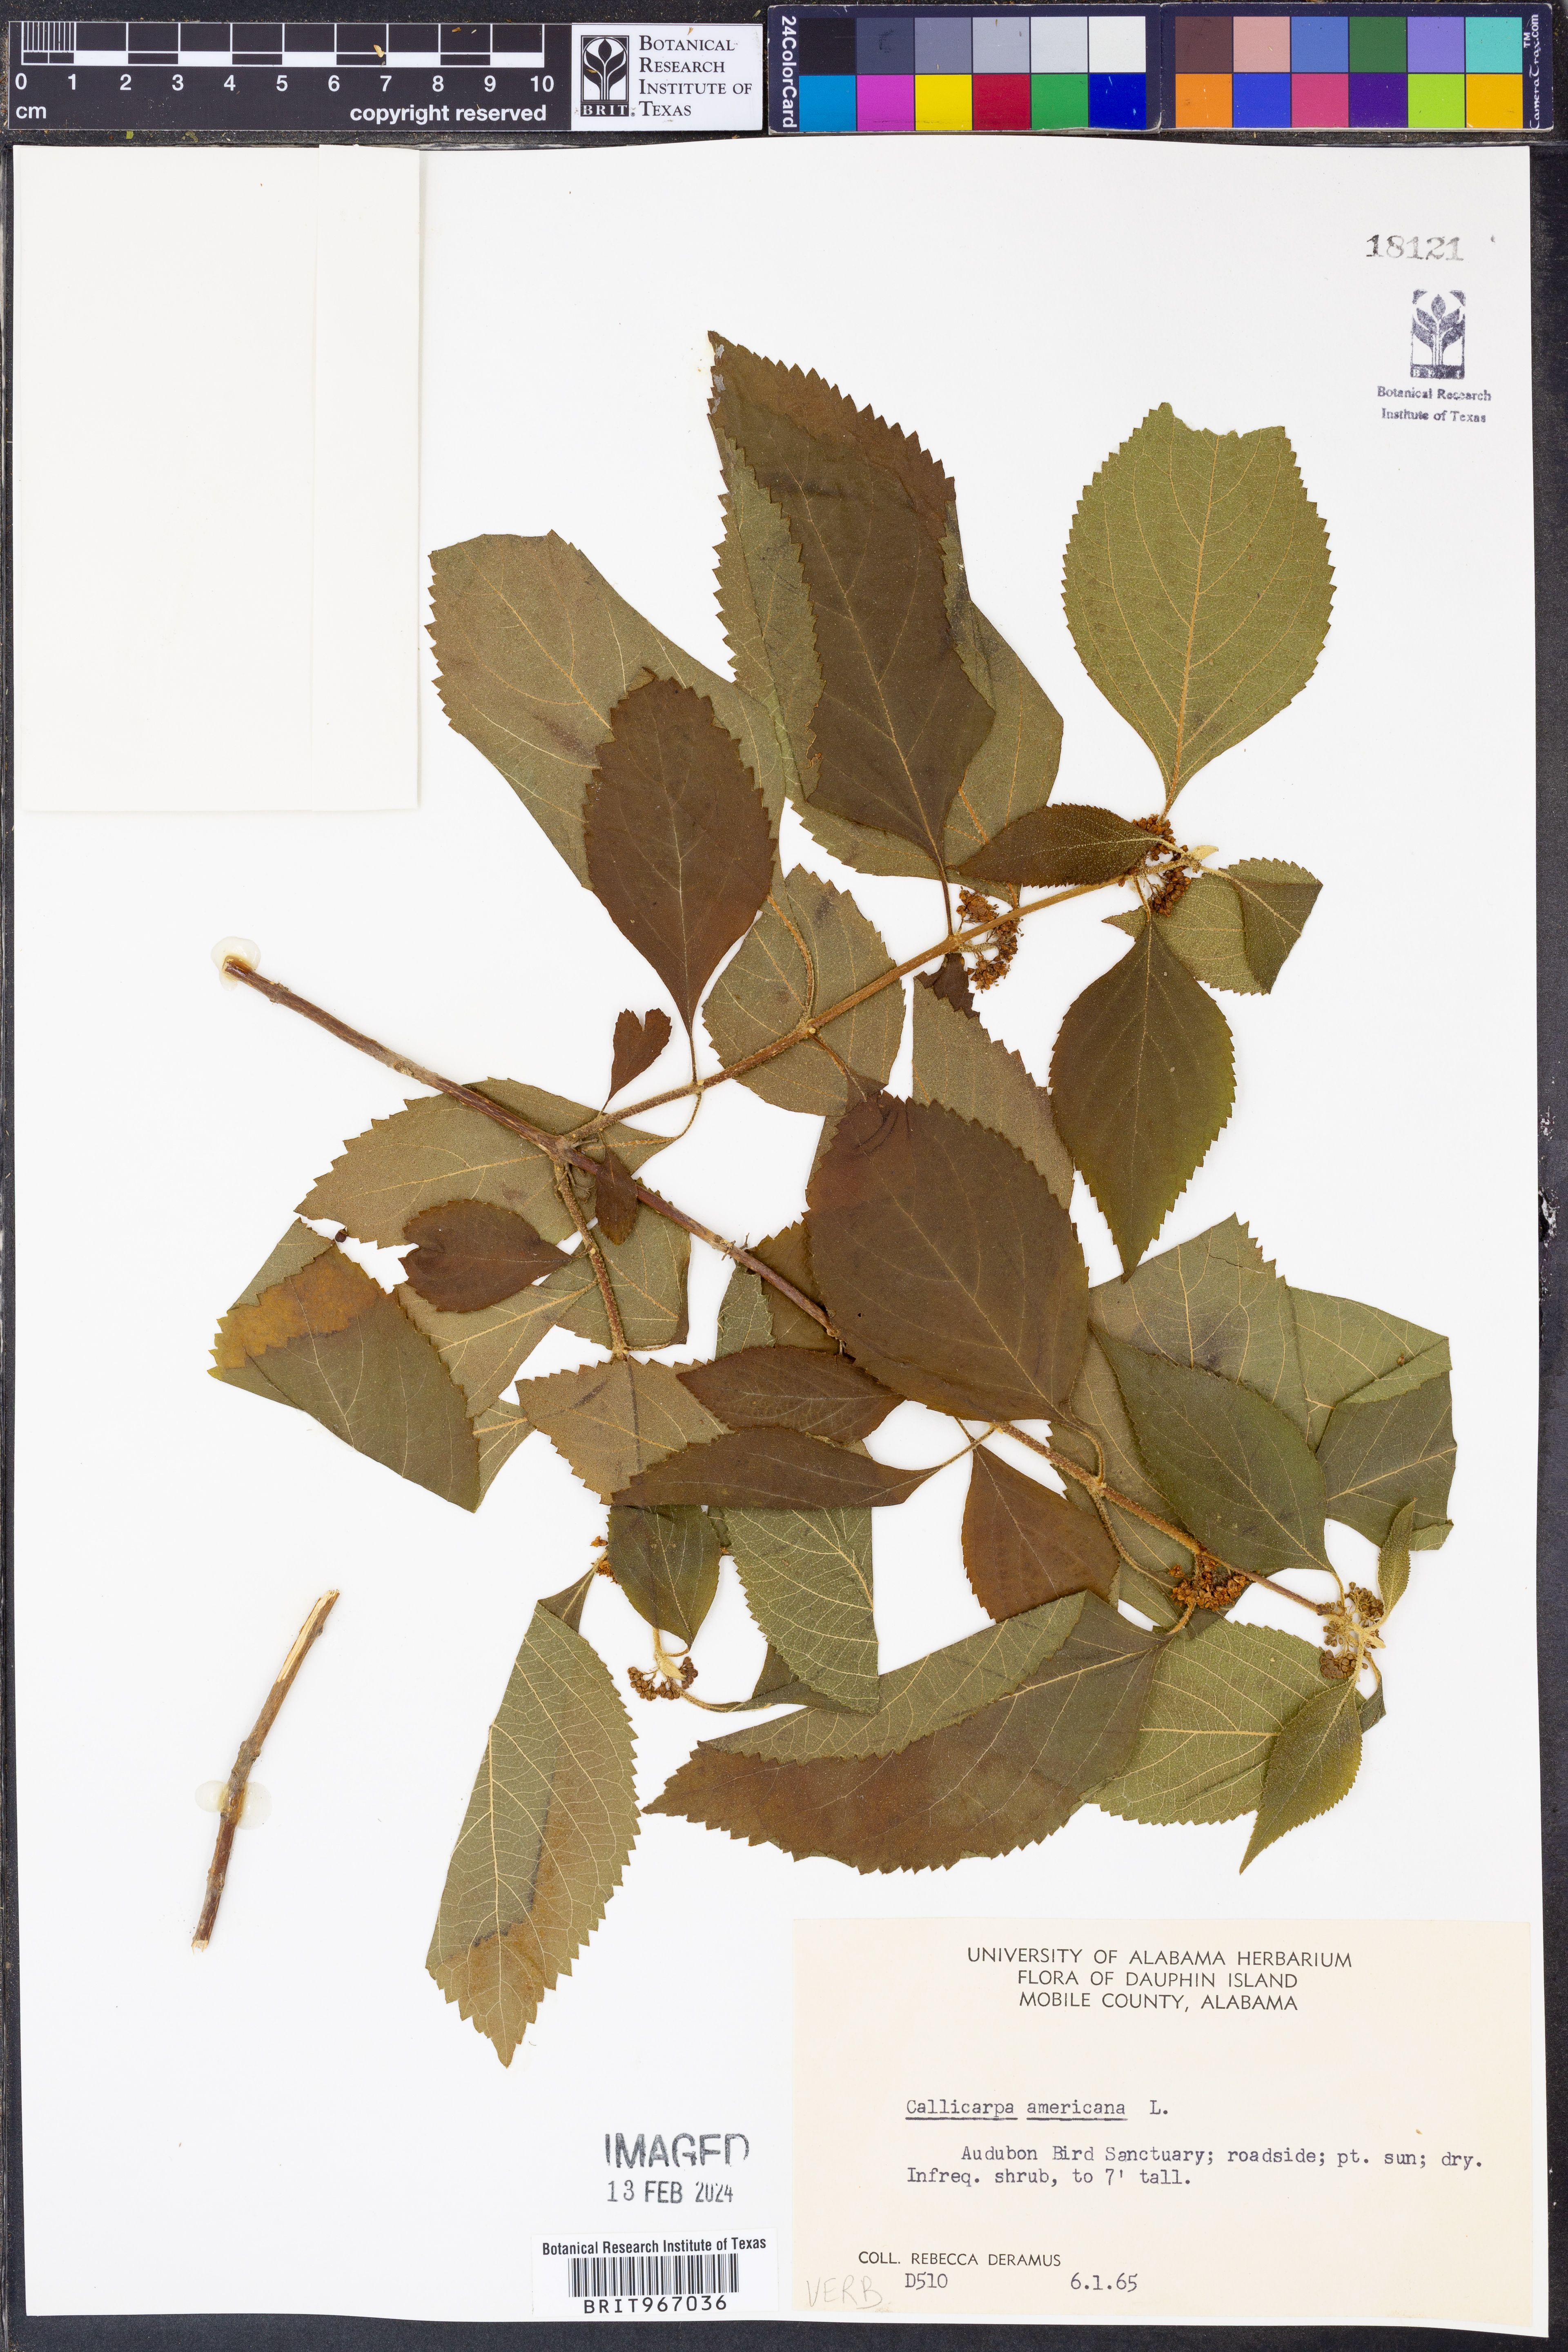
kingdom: Plantae
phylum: Tracheophyta
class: Magnoliopsida
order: Lamiales
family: Lamiaceae
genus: Callicarpa
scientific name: Callicarpa americana
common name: American beautyberry
